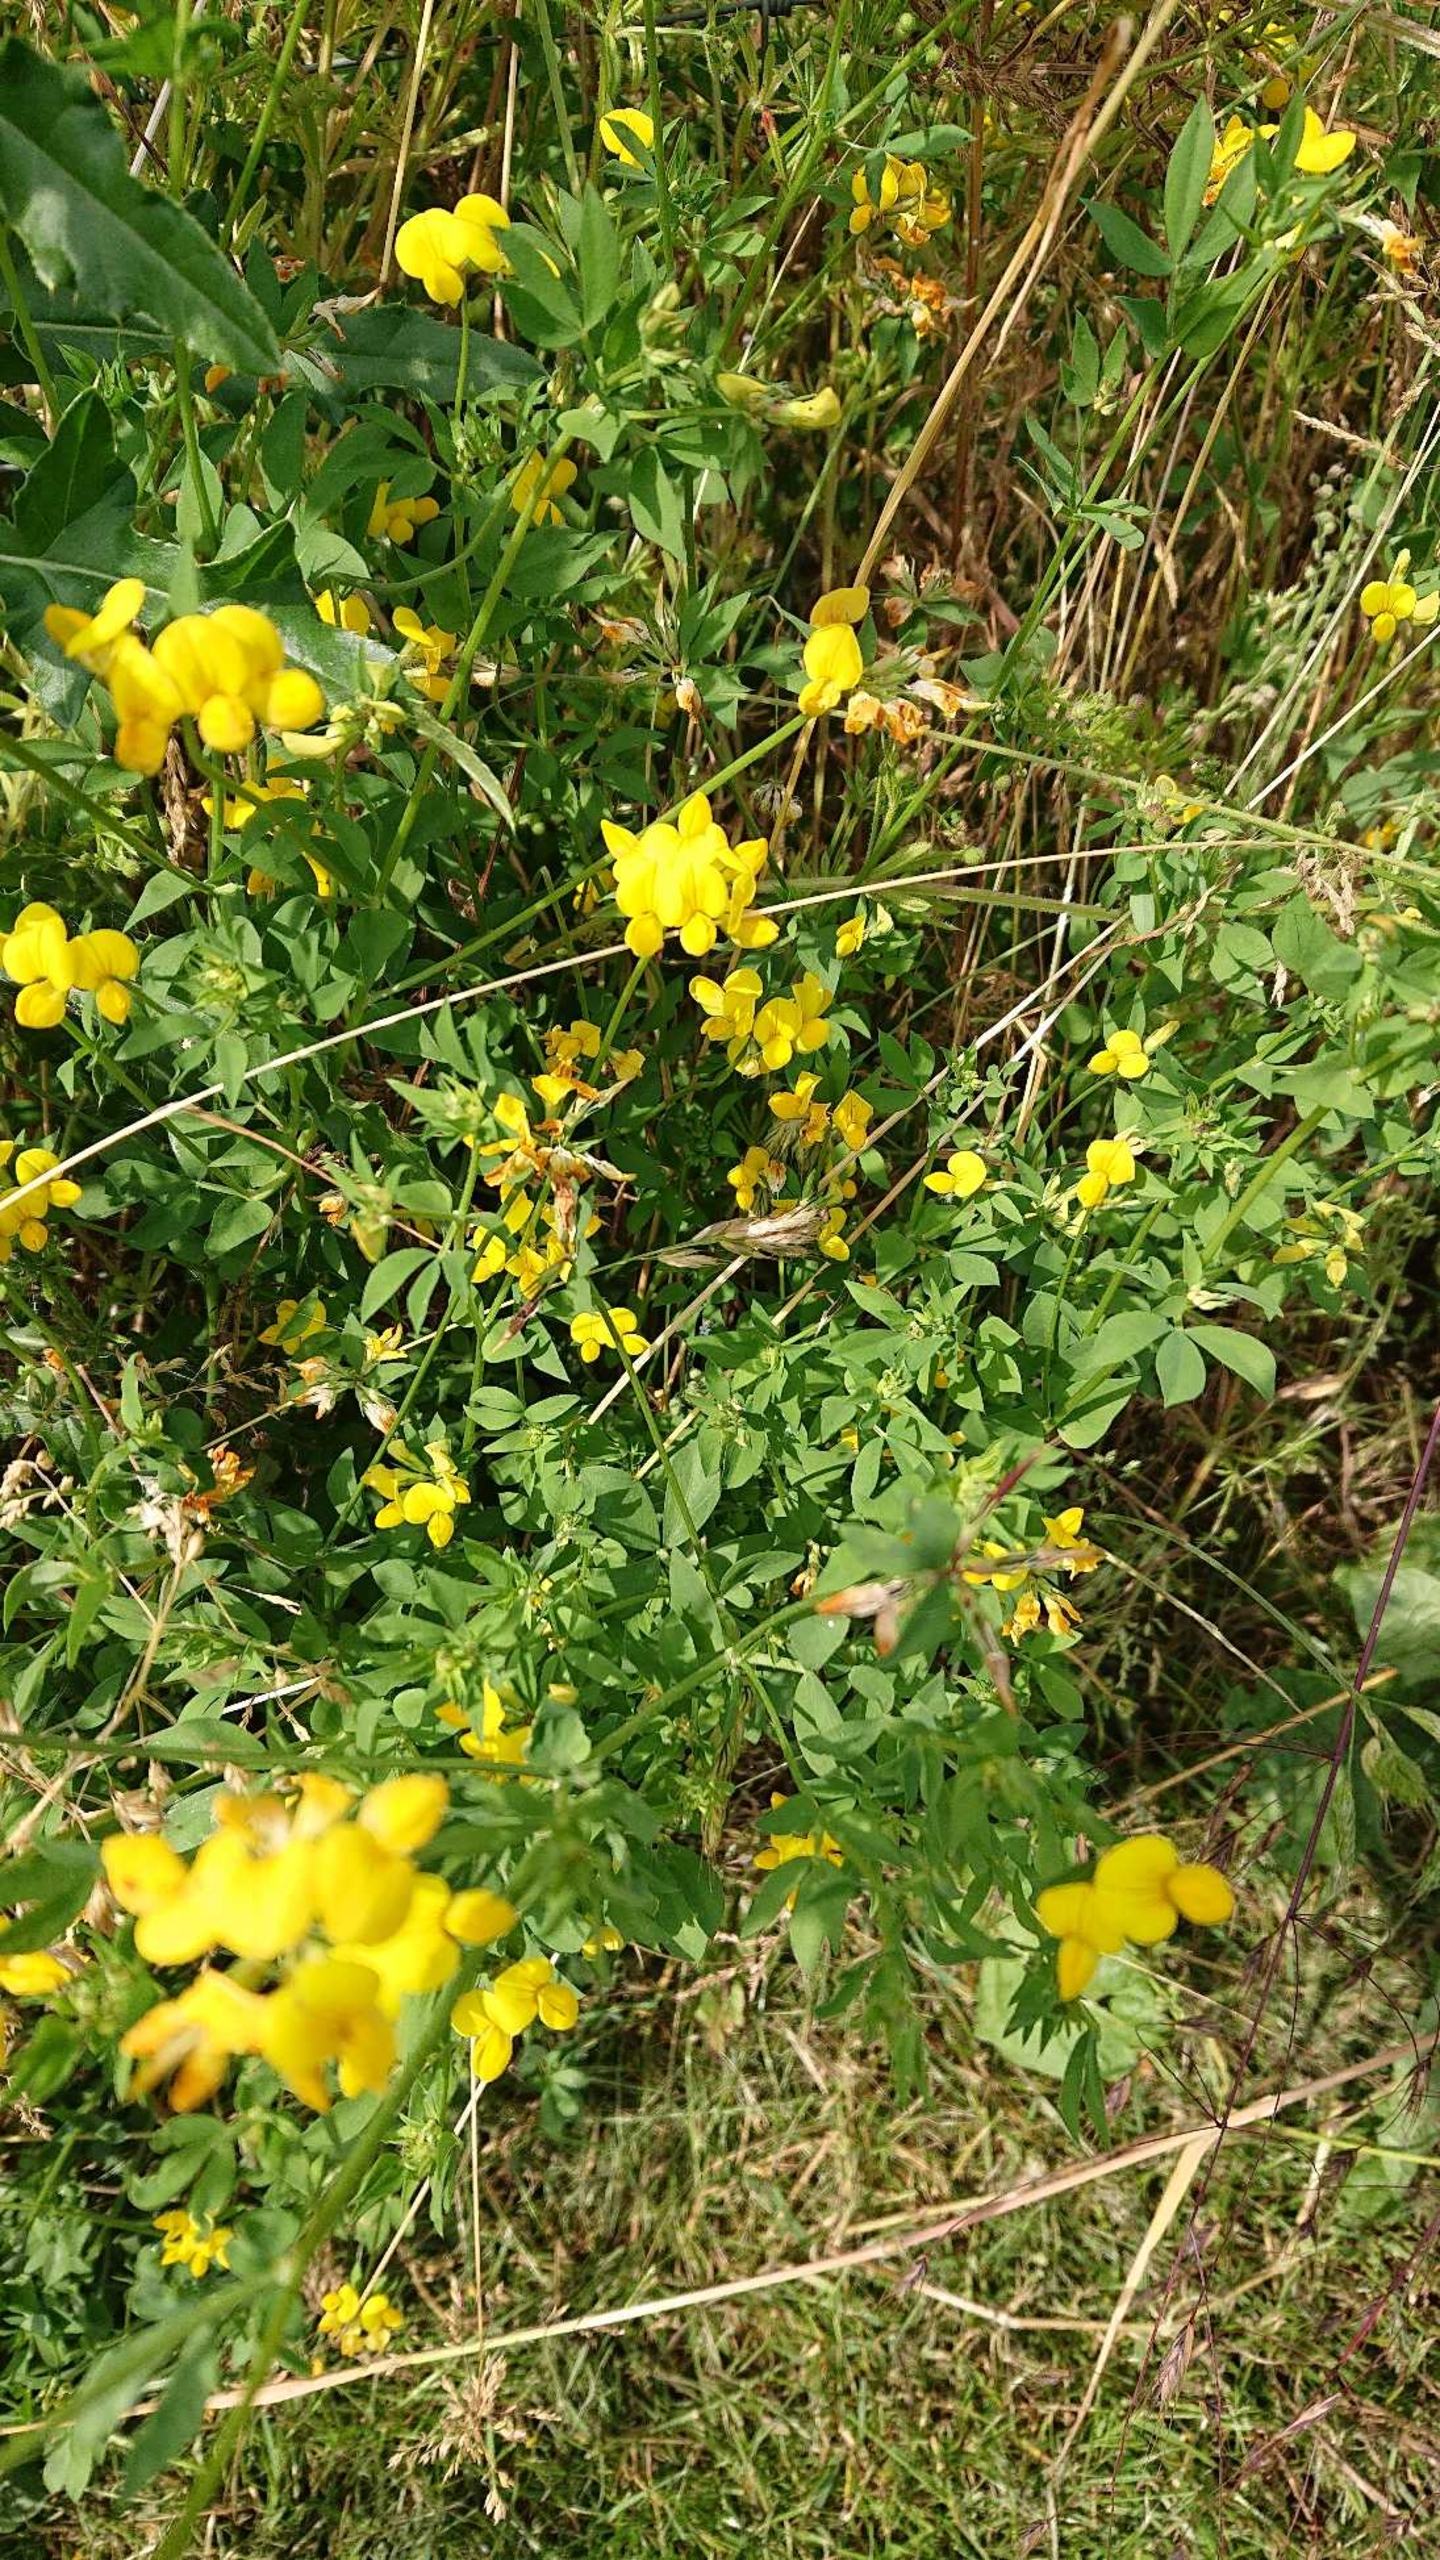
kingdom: Plantae
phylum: Tracheophyta
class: Magnoliopsida
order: Fabales
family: Fabaceae
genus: Lotus
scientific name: Lotus corniculatus
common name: Almindelig kællingetand
